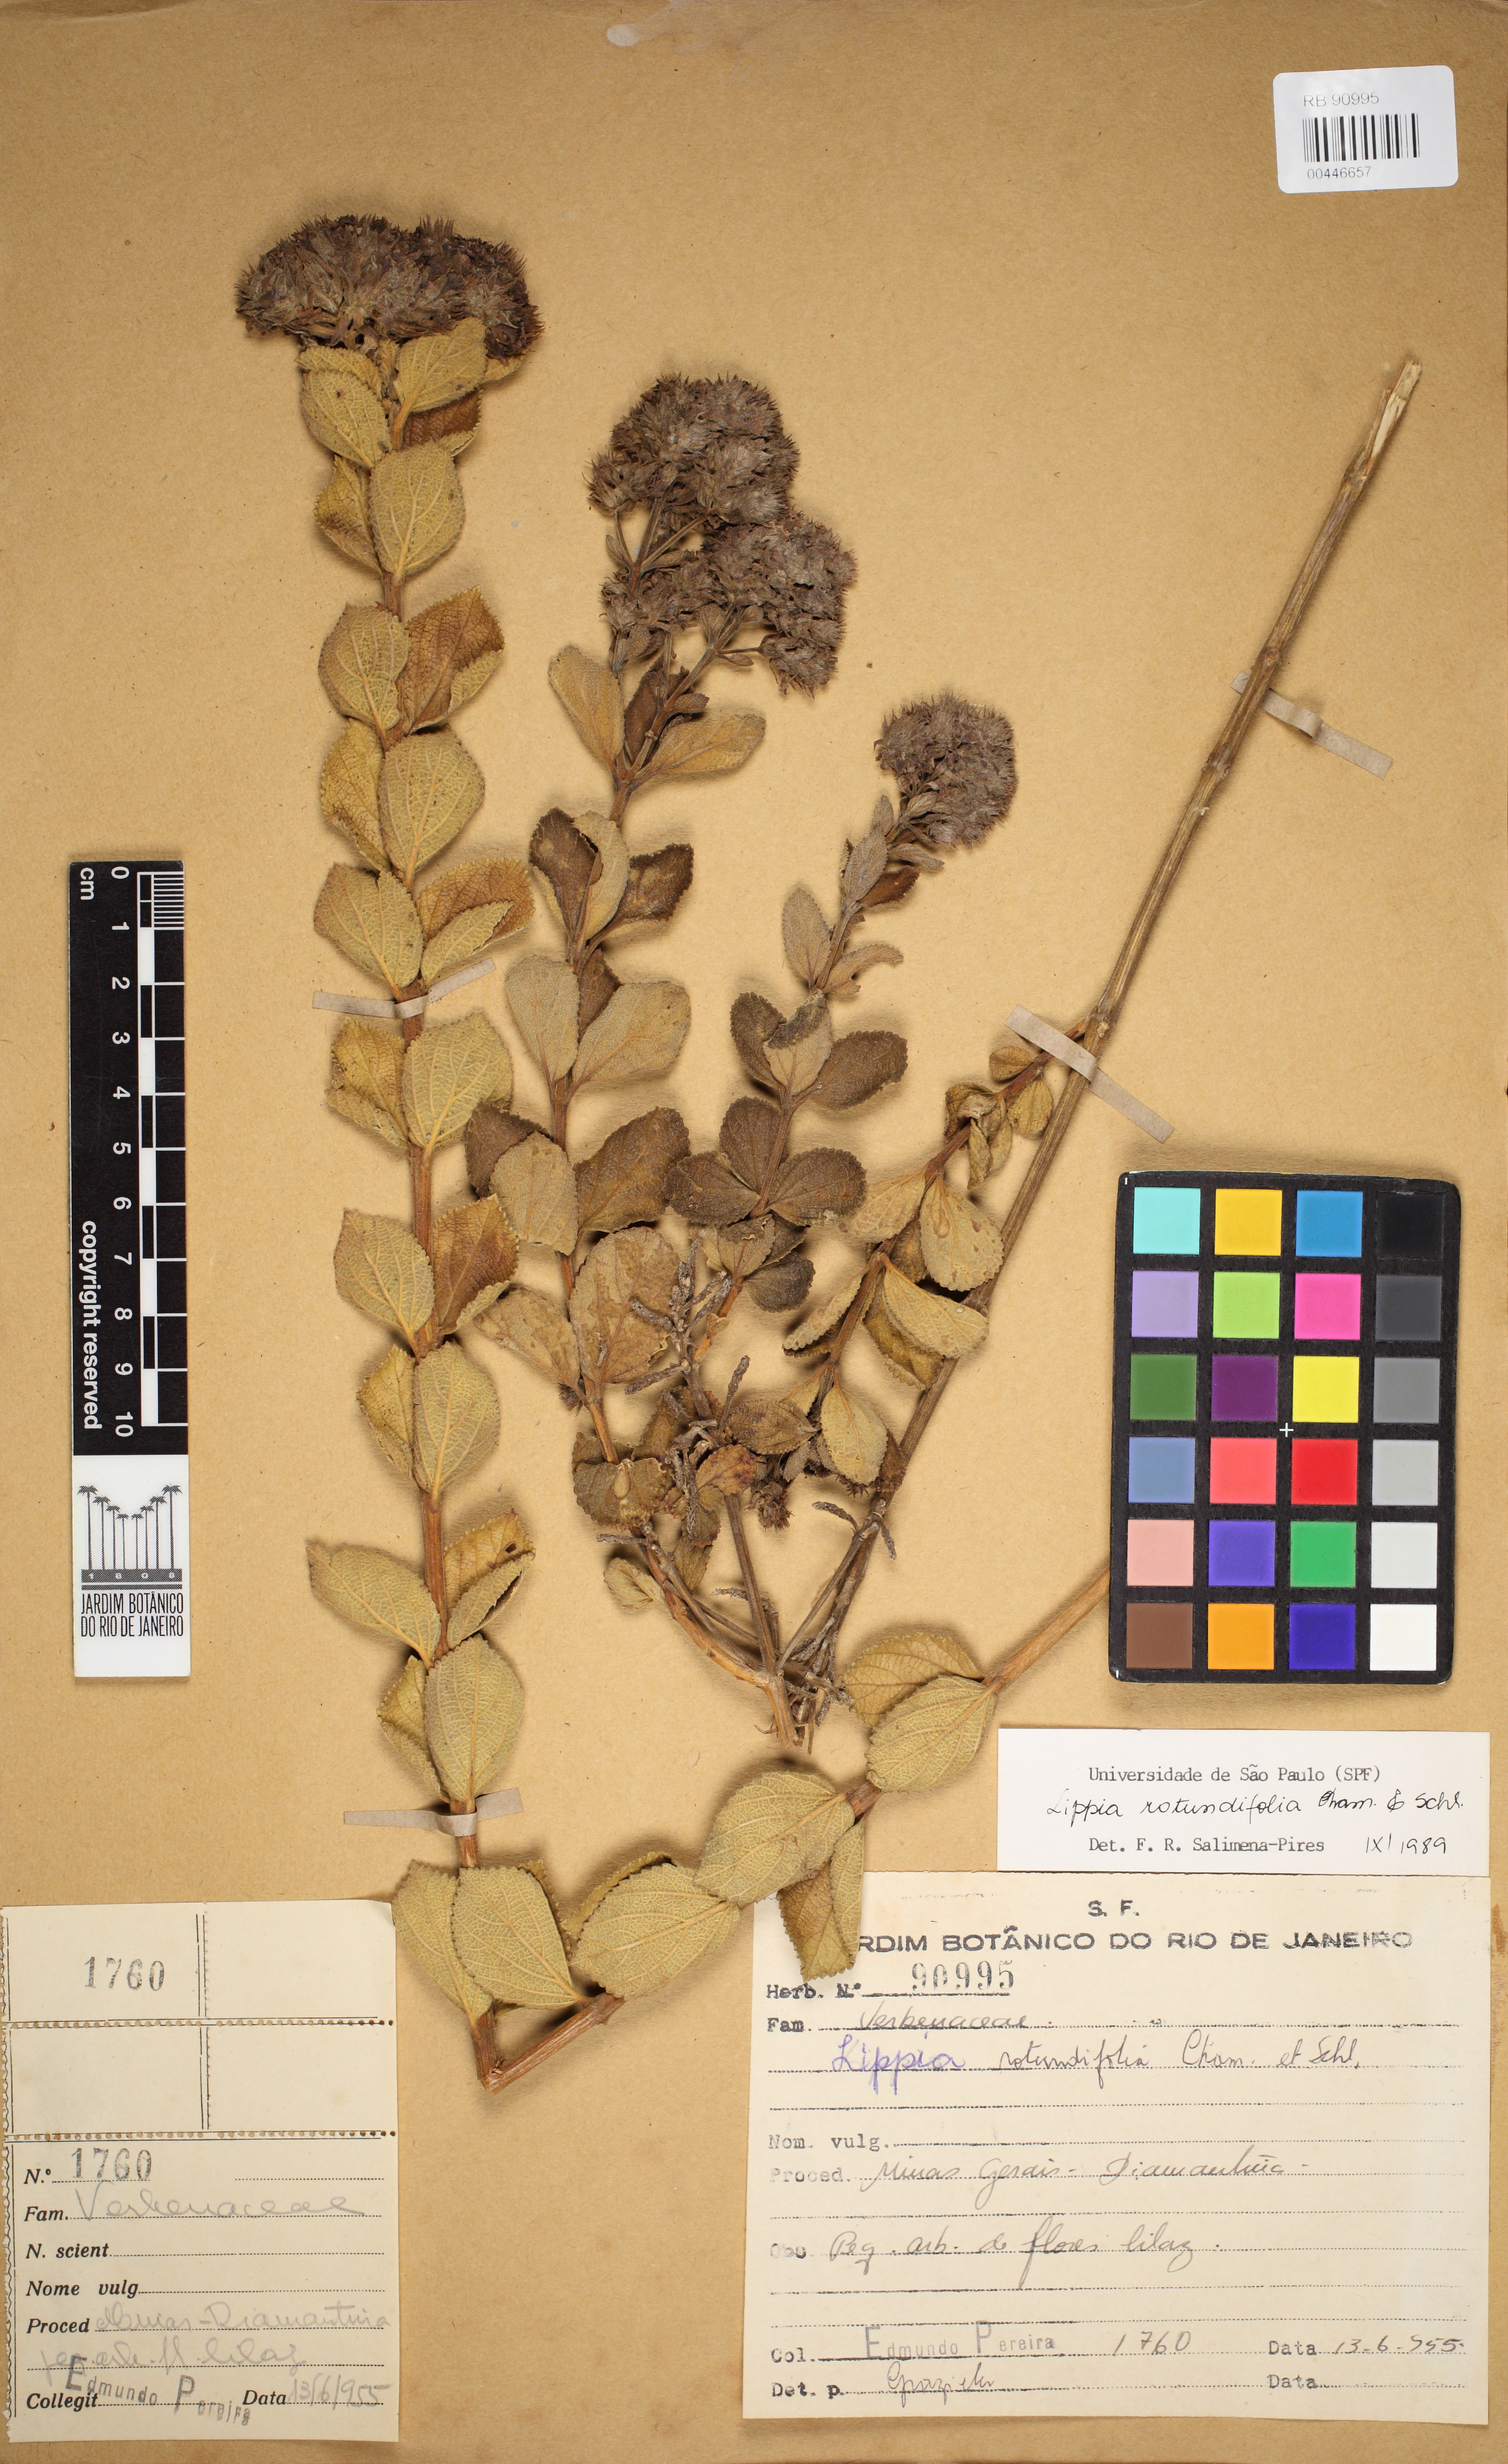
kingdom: Plantae
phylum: Tracheophyta
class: Magnoliopsida
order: Lamiales
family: Verbenaceae
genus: Lippia
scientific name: Lippia rotundifolia
